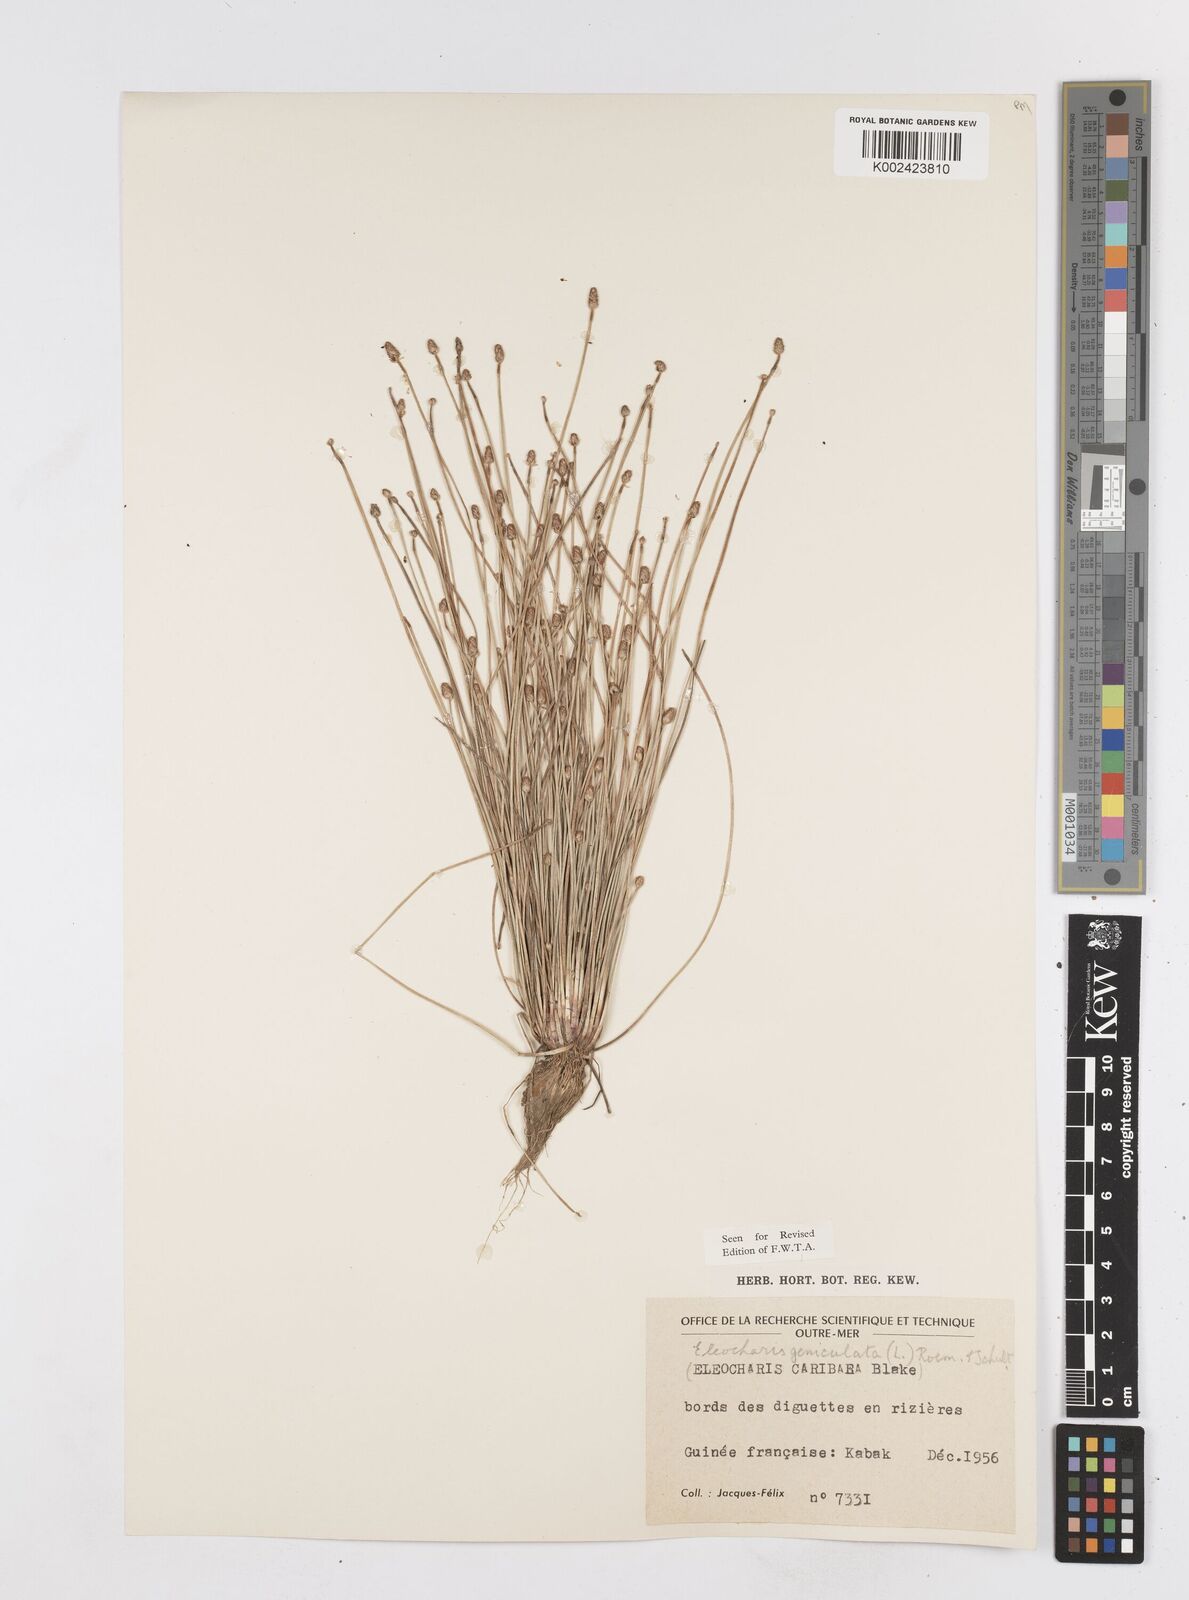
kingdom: Plantae
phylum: Tracheophyta
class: Liliopsida
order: Poales
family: Cyperaceae
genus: Eleocharis
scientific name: Eleocharis geniculata
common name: Canada spikesedge
